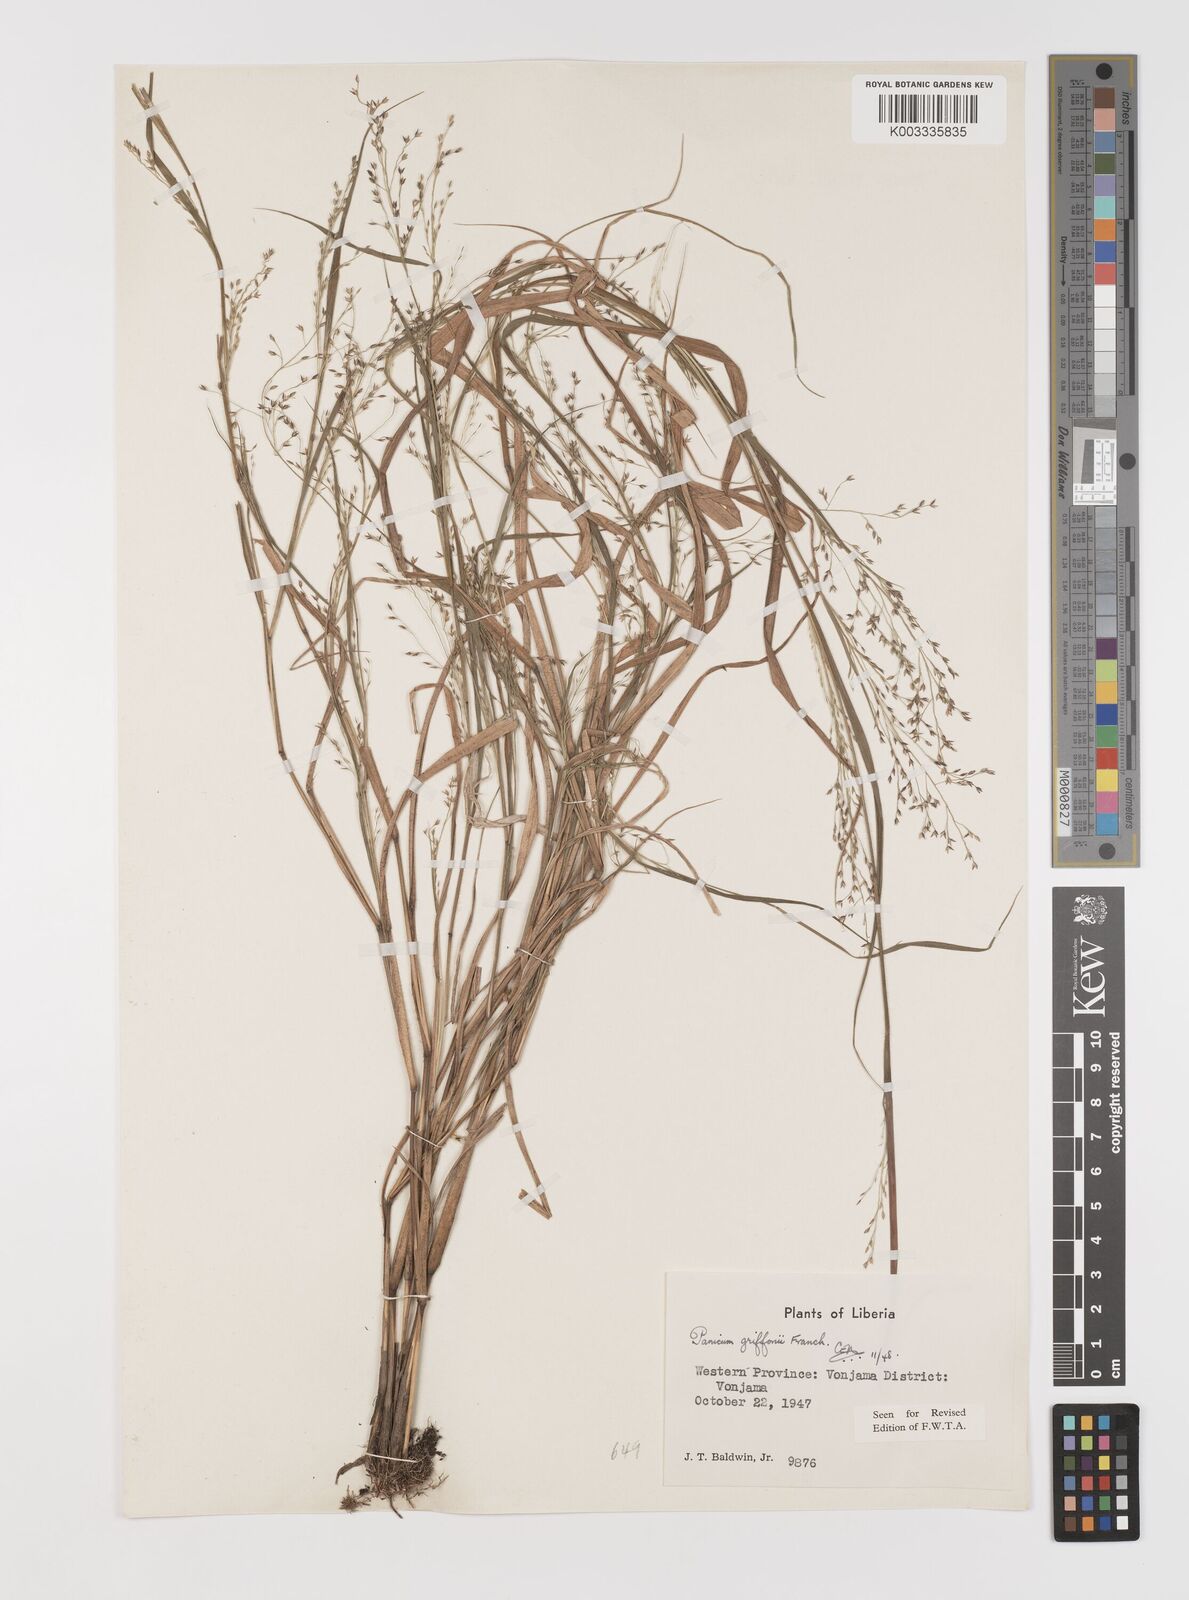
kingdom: Plantae
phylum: Tracheophyta
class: Liliopsida
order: Poales
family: Poaceae
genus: Panicum
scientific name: Panicum griffonii
